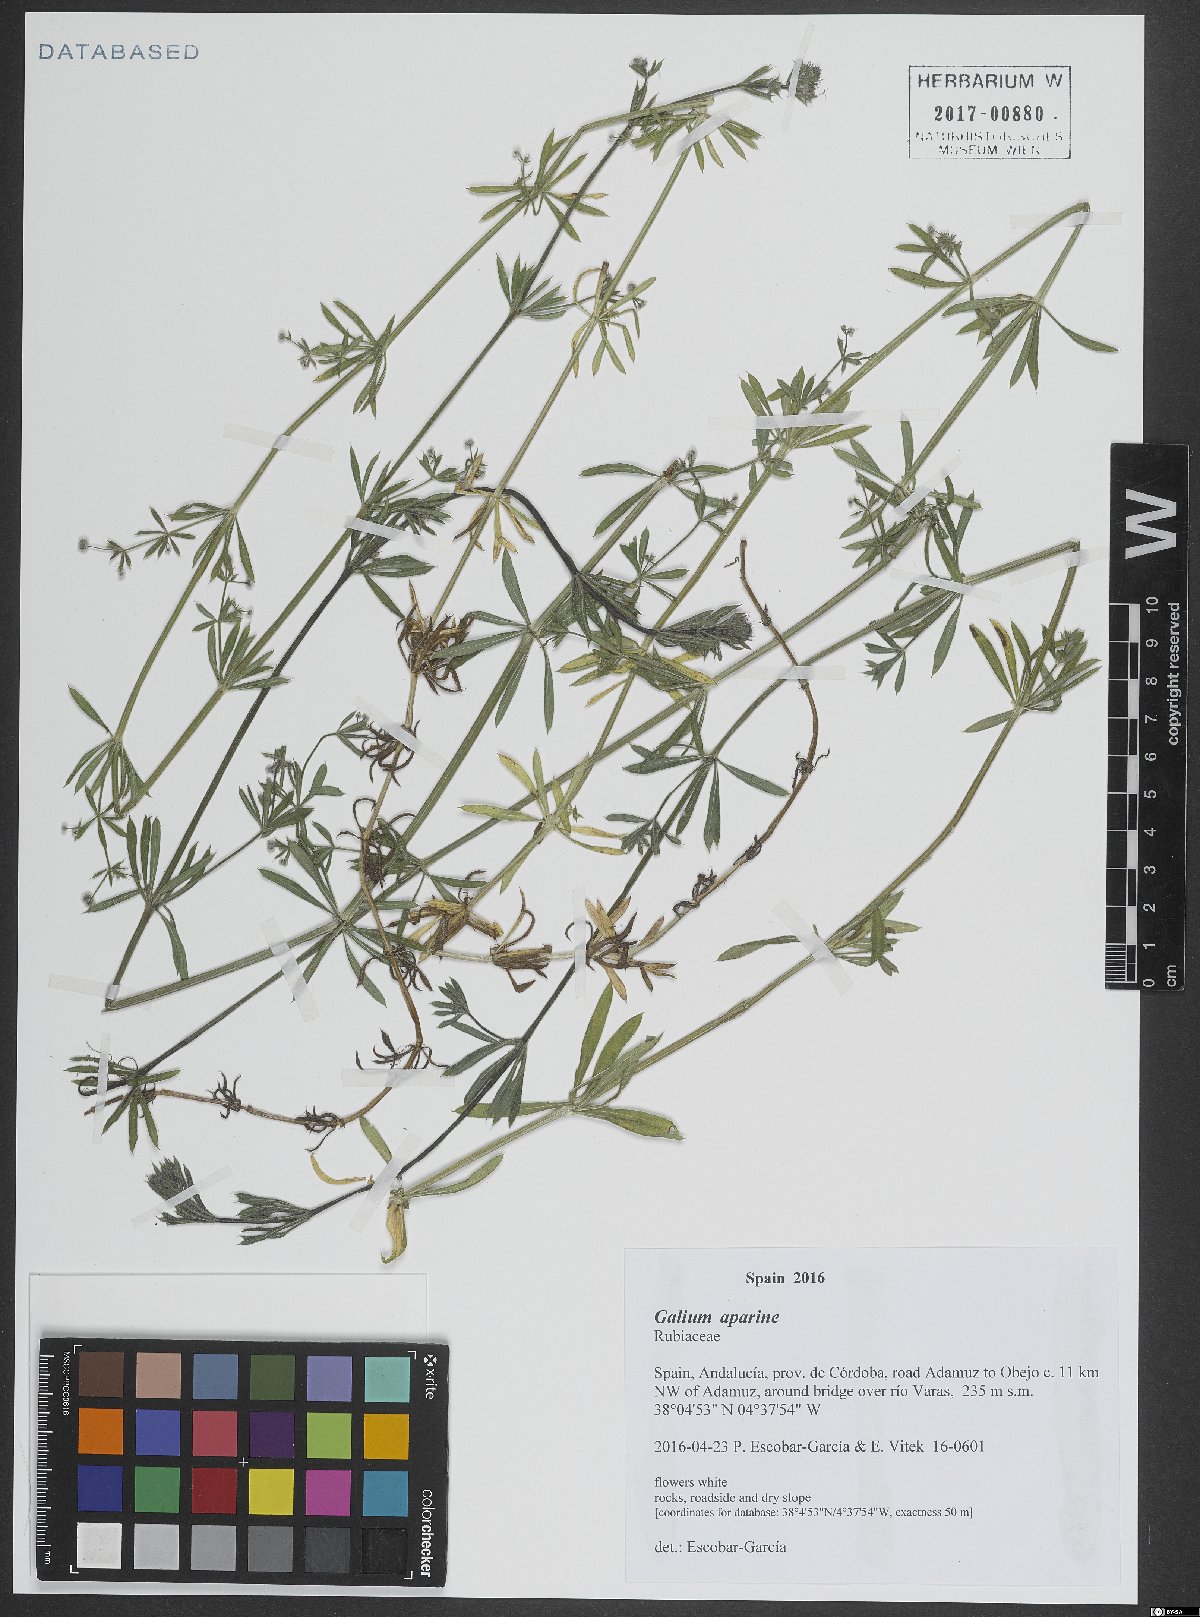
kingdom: Plantae
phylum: Tracheophyta
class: Magnoliopsida
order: Gentianales
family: Rubiaceae
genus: Galium
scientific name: Galium aparine
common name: Cleavers
